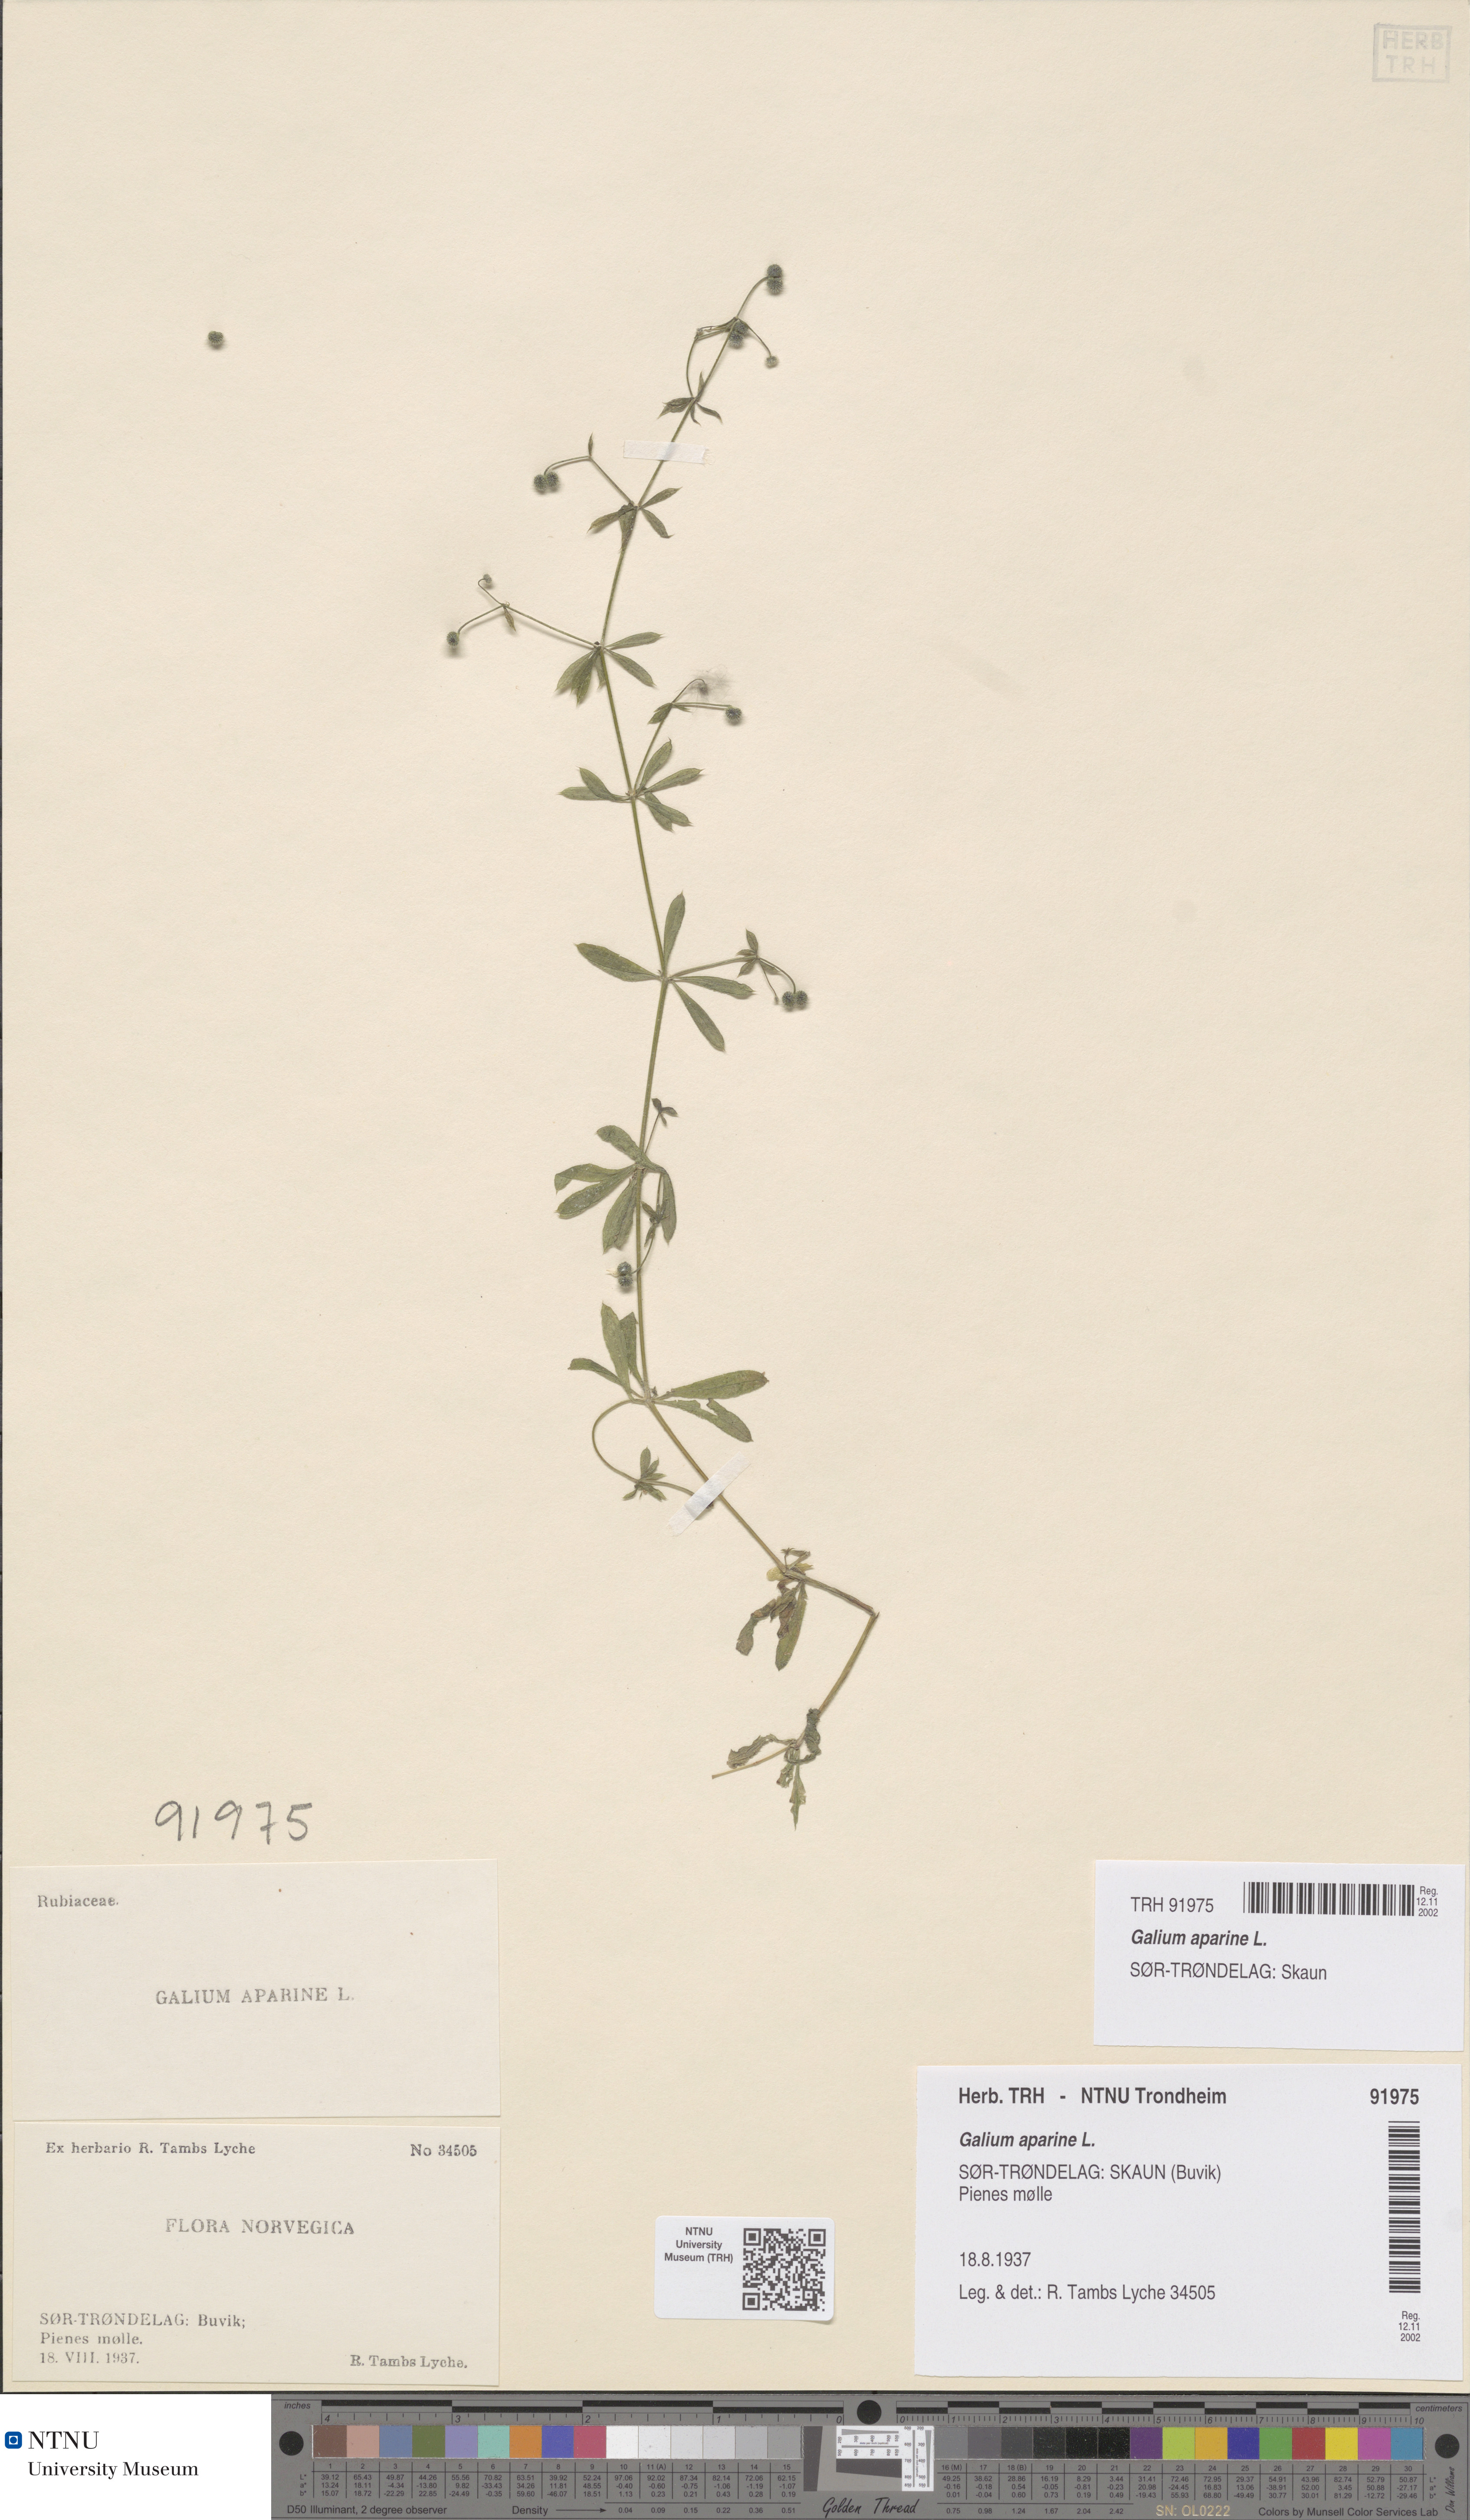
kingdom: Plantae
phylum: Tracheophyta
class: Magnoliopsida
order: Gentianales
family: Rubiaceae
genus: Galium
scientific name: Galium aparine
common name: Cleavers
